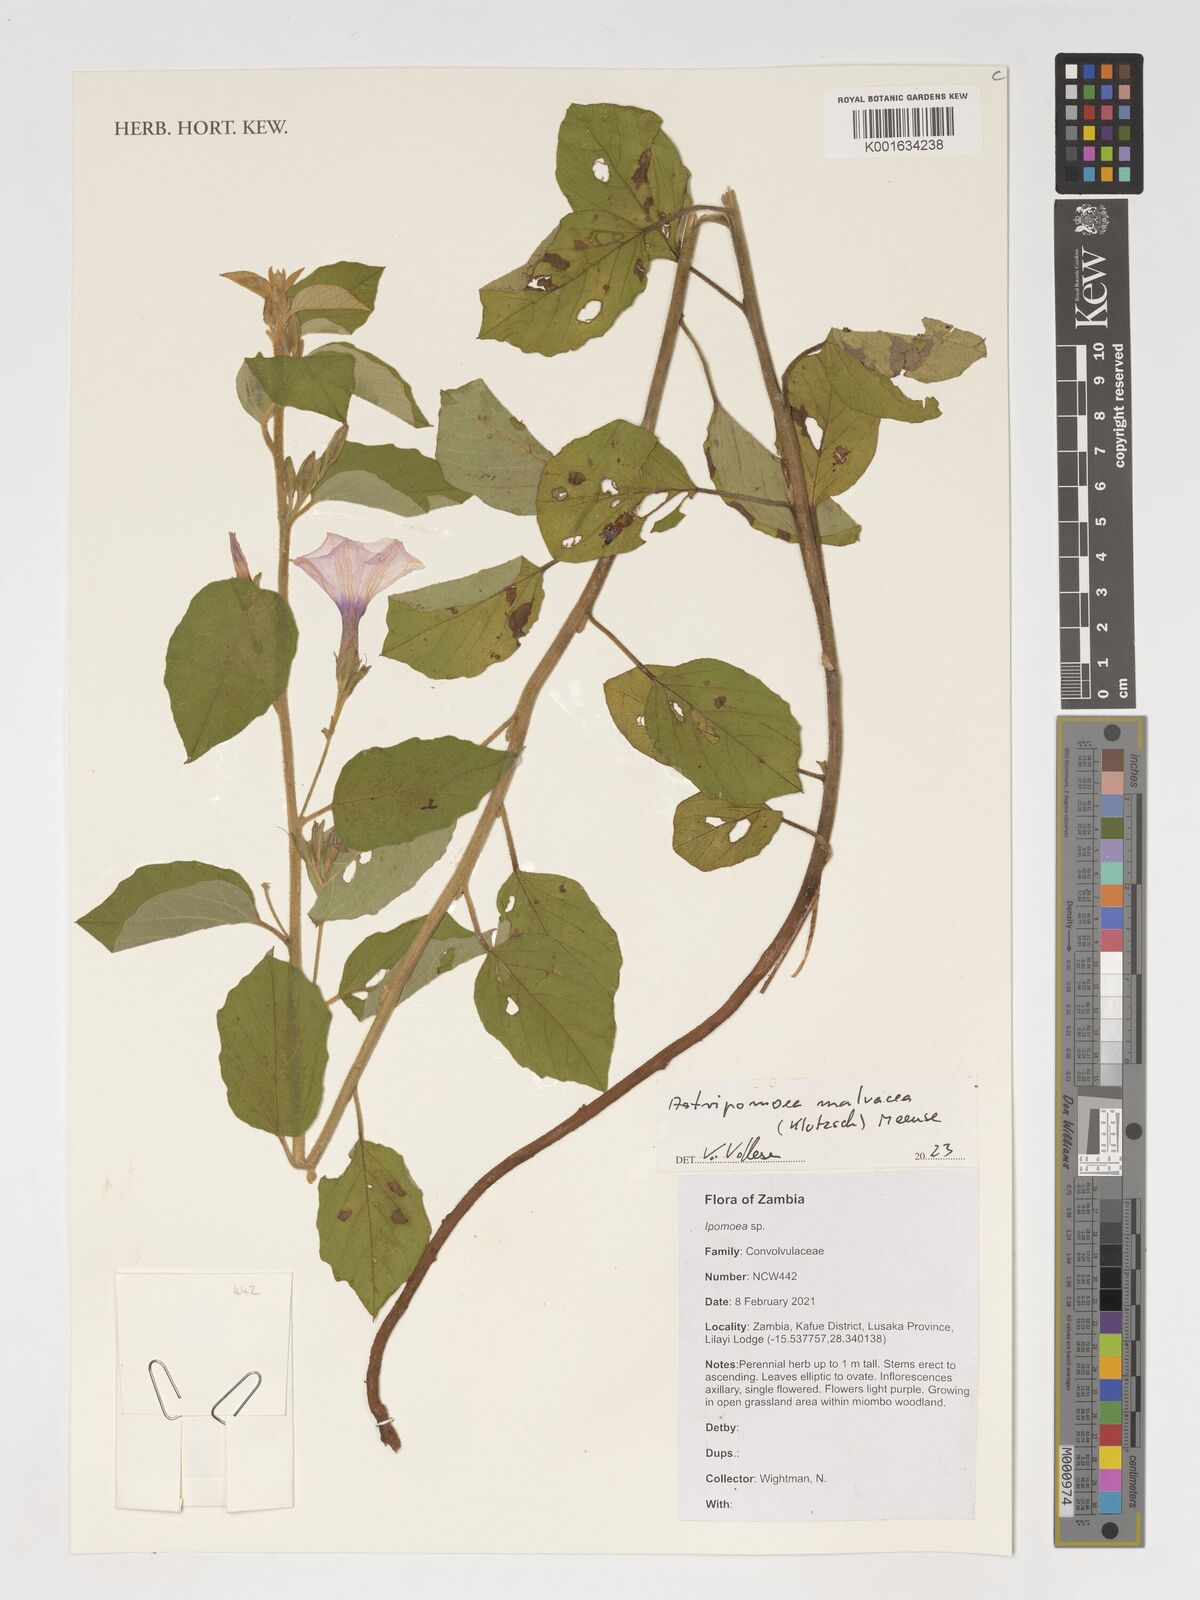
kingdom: Plantae
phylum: Tracheophyta
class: Magnoliopsida
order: Solanales
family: Convolvulaceae
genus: Astripomoea
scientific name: Astripomoea malvacea
